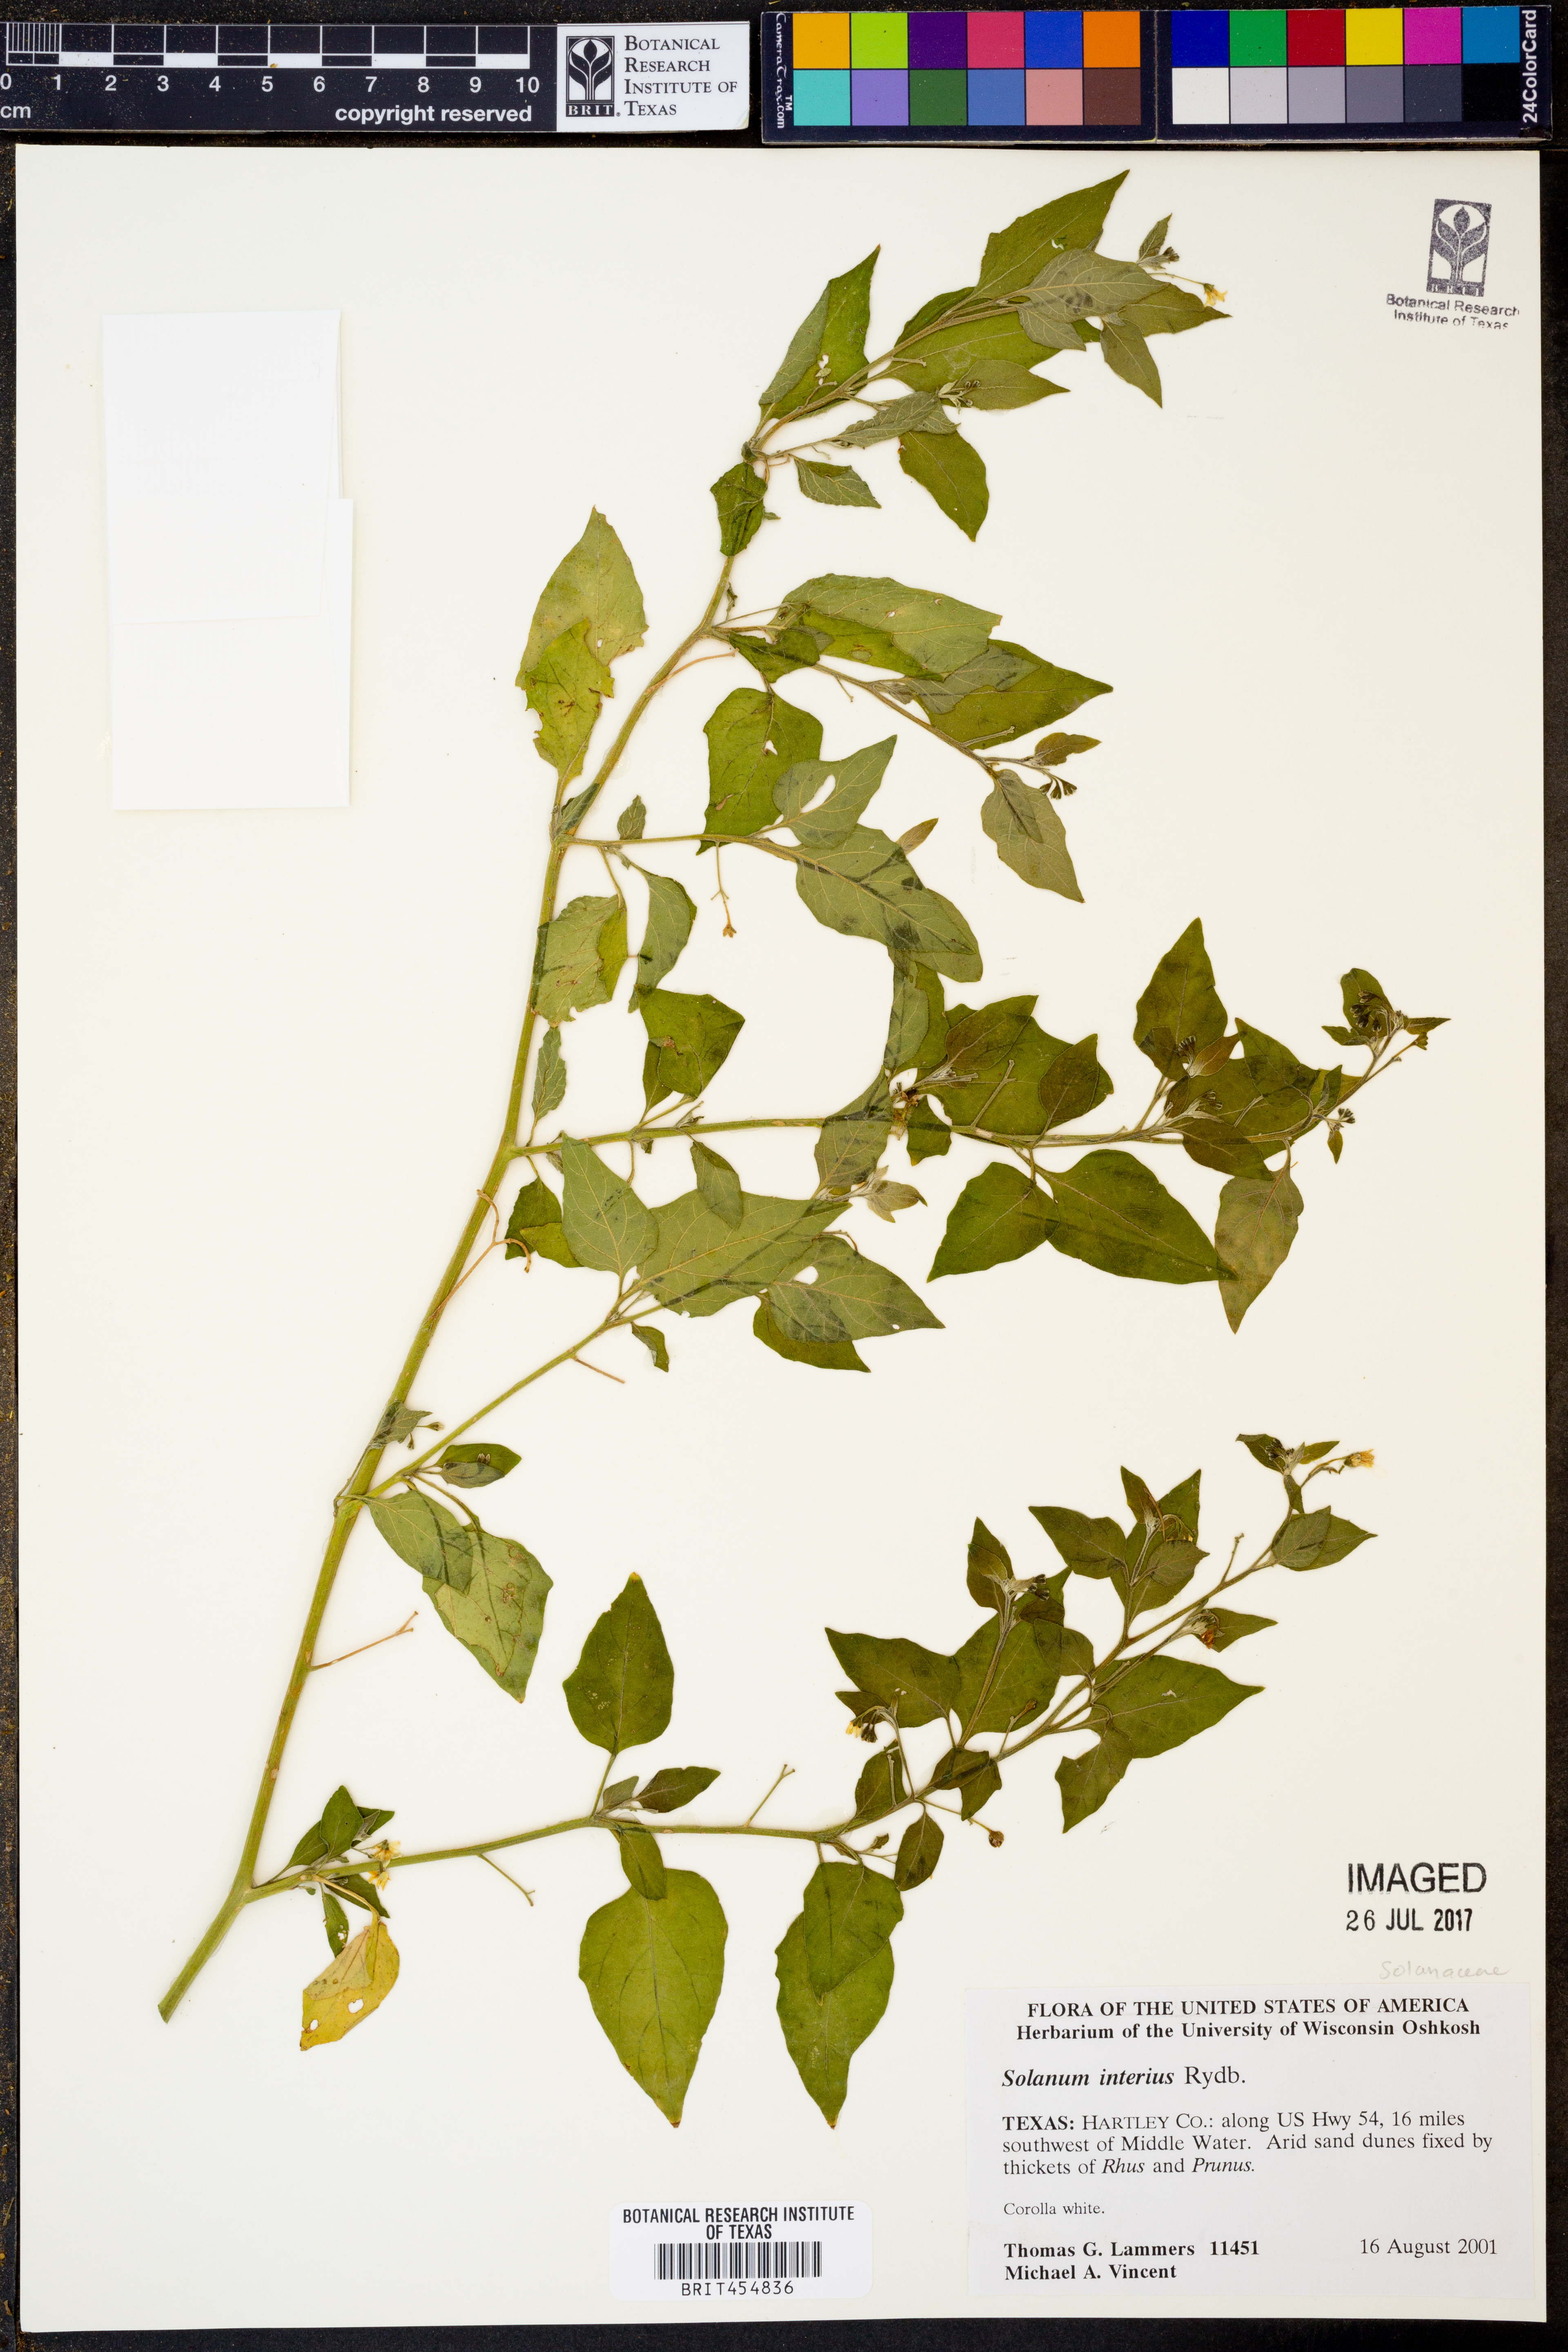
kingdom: Plantae
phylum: Tracheophyta
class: Magnoliopsida
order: Solanales
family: Solanaceae
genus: Solanum
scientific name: Solanum interius
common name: Plains black nightshade
